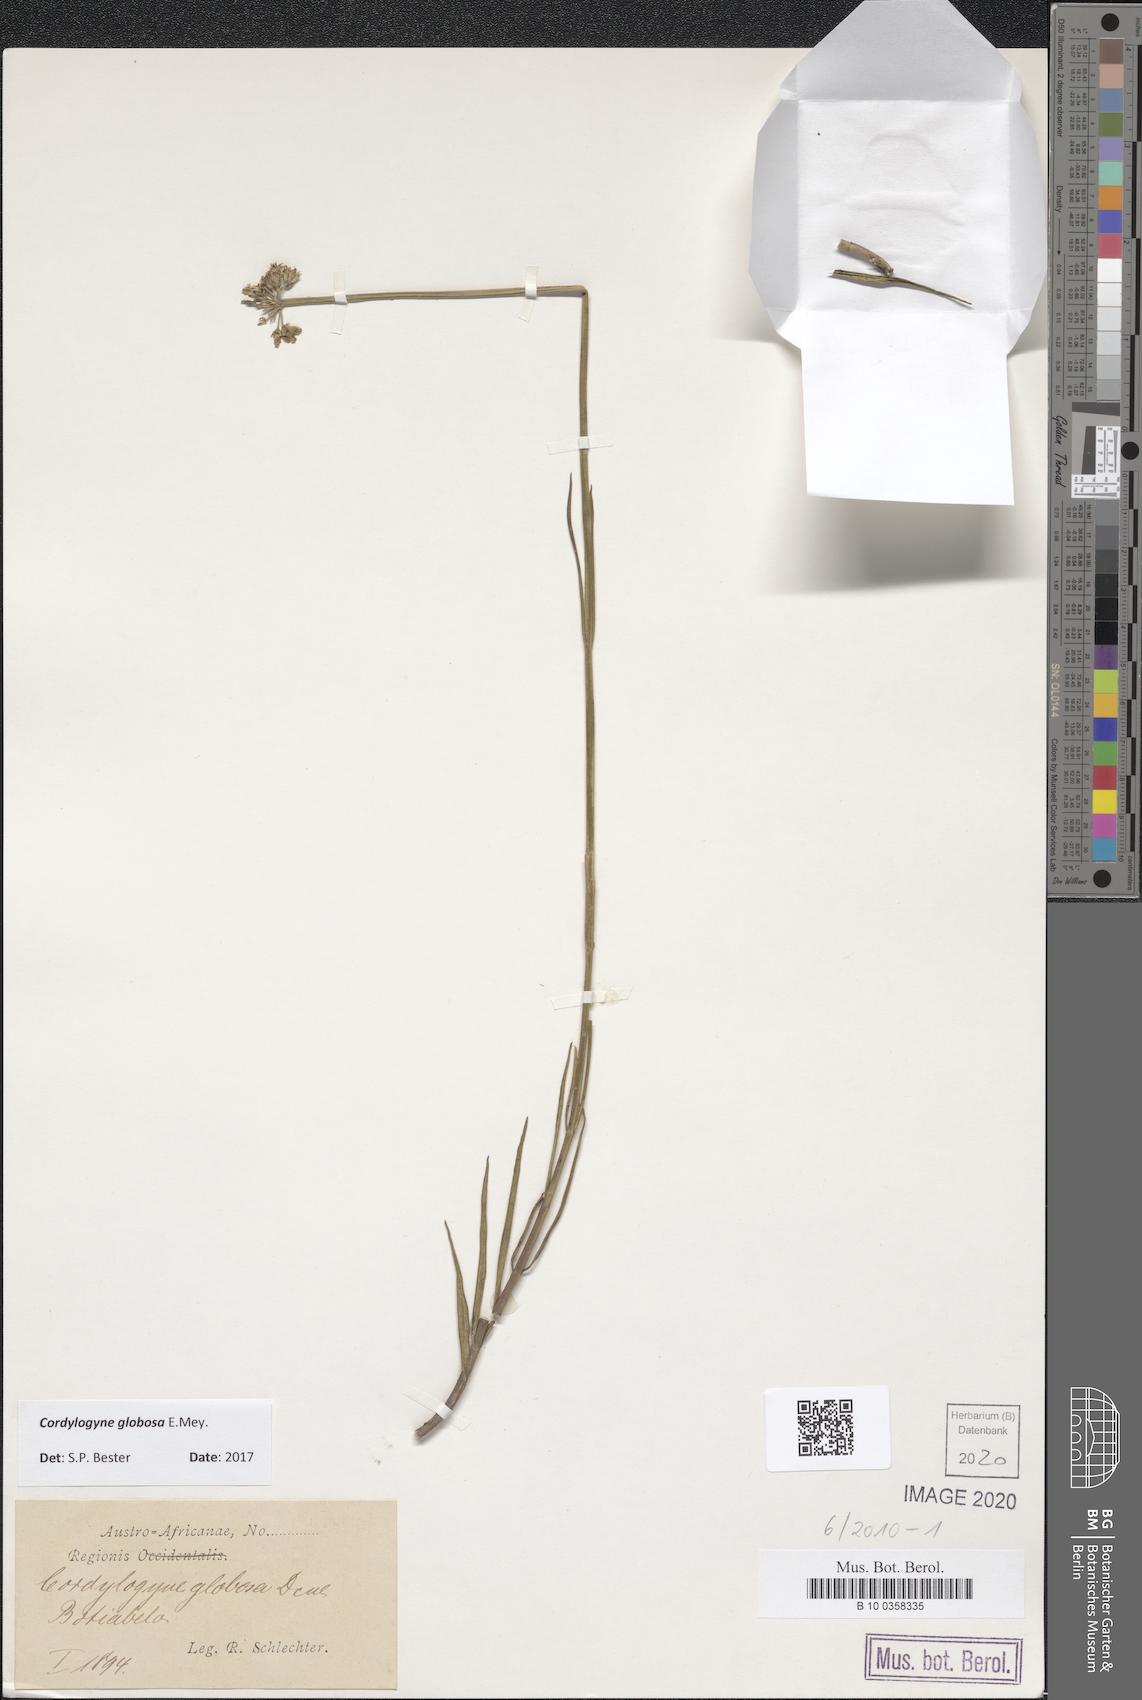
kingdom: Plantae
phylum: Tracheophyta
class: Magnoliopsida
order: Gentianales
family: Apocynaceae
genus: Cordylogyne
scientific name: Cordylogyne globosa
